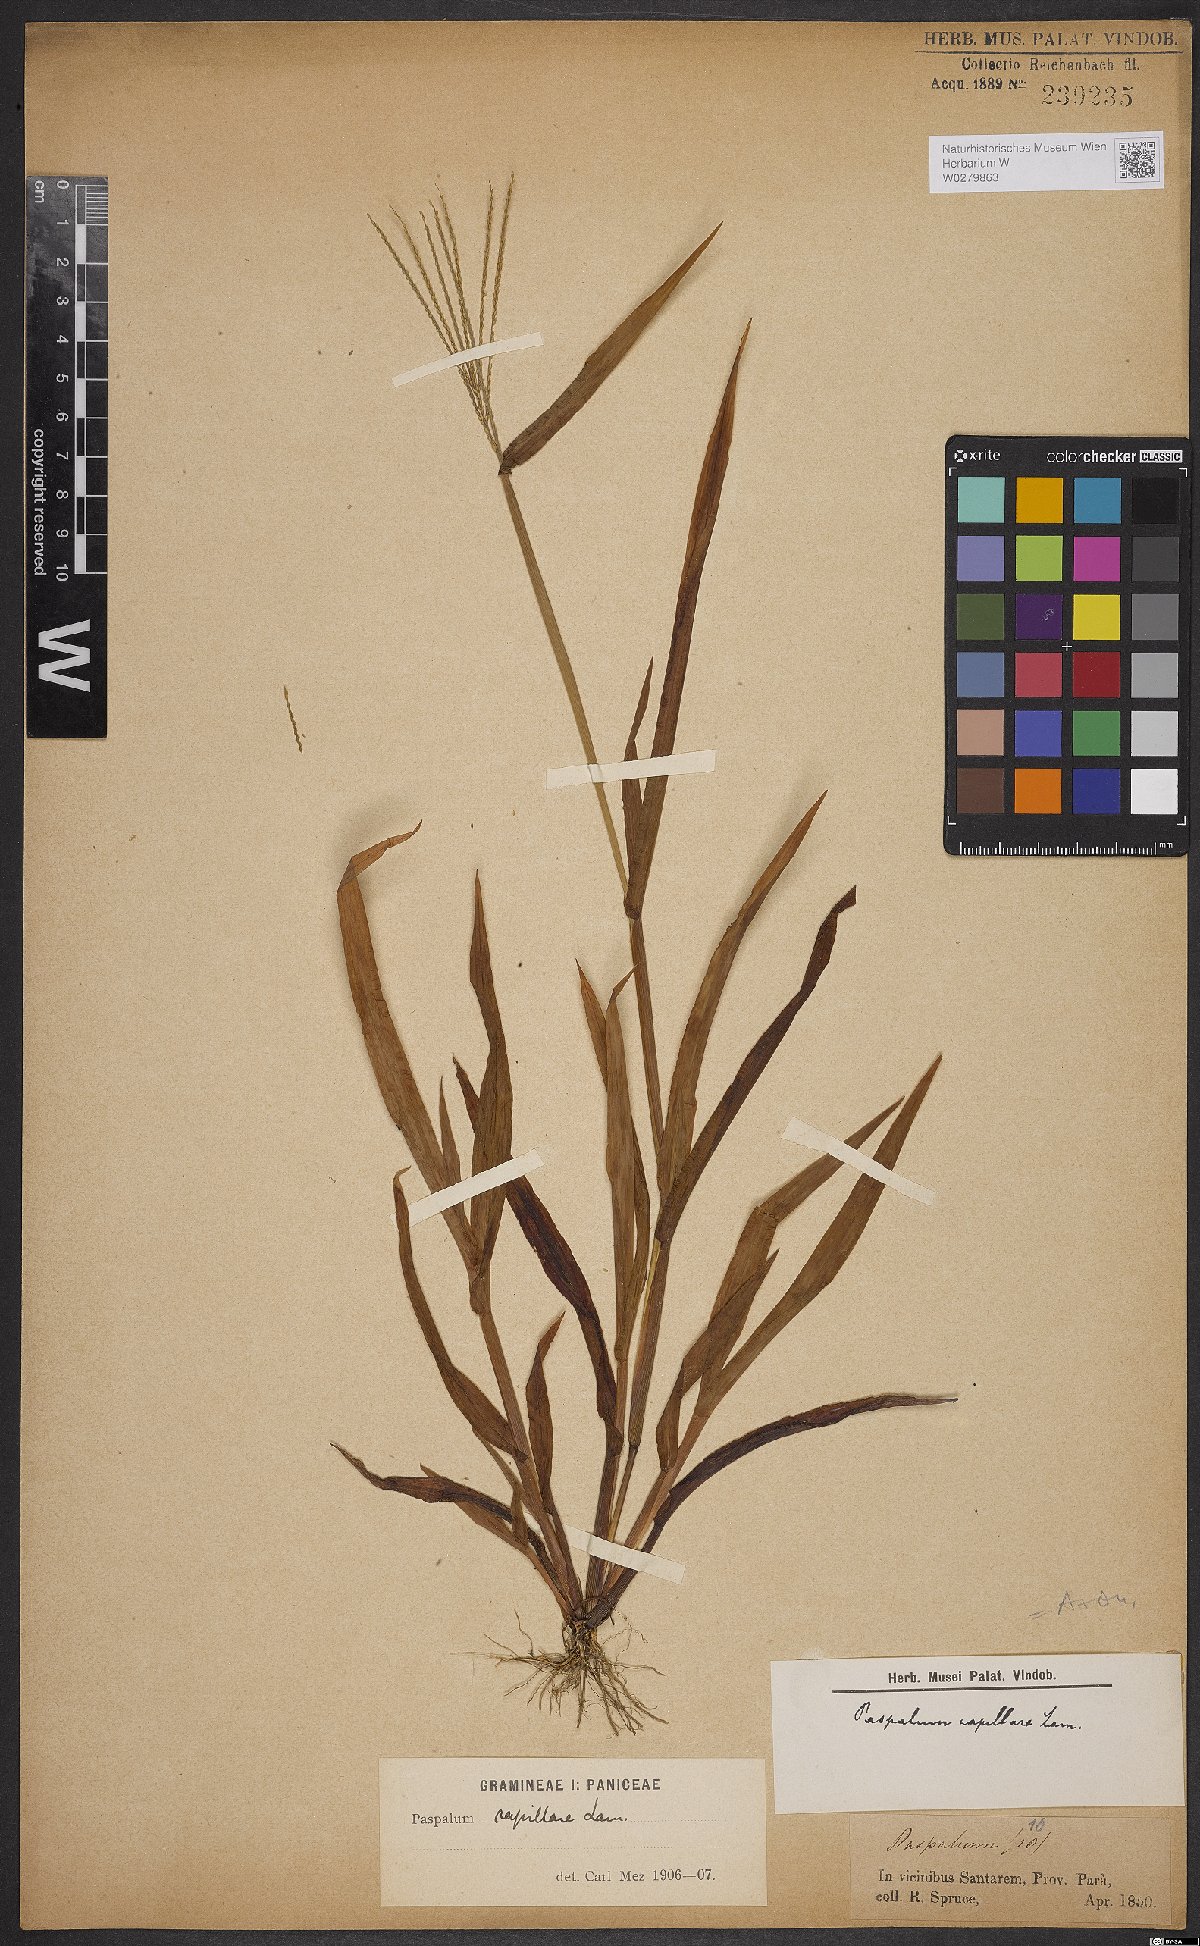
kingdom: Plantae
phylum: Tracheophyta
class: Liliopsida
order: Poales
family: Poaceae
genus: Axonopus
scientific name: Axonopus capillaris
